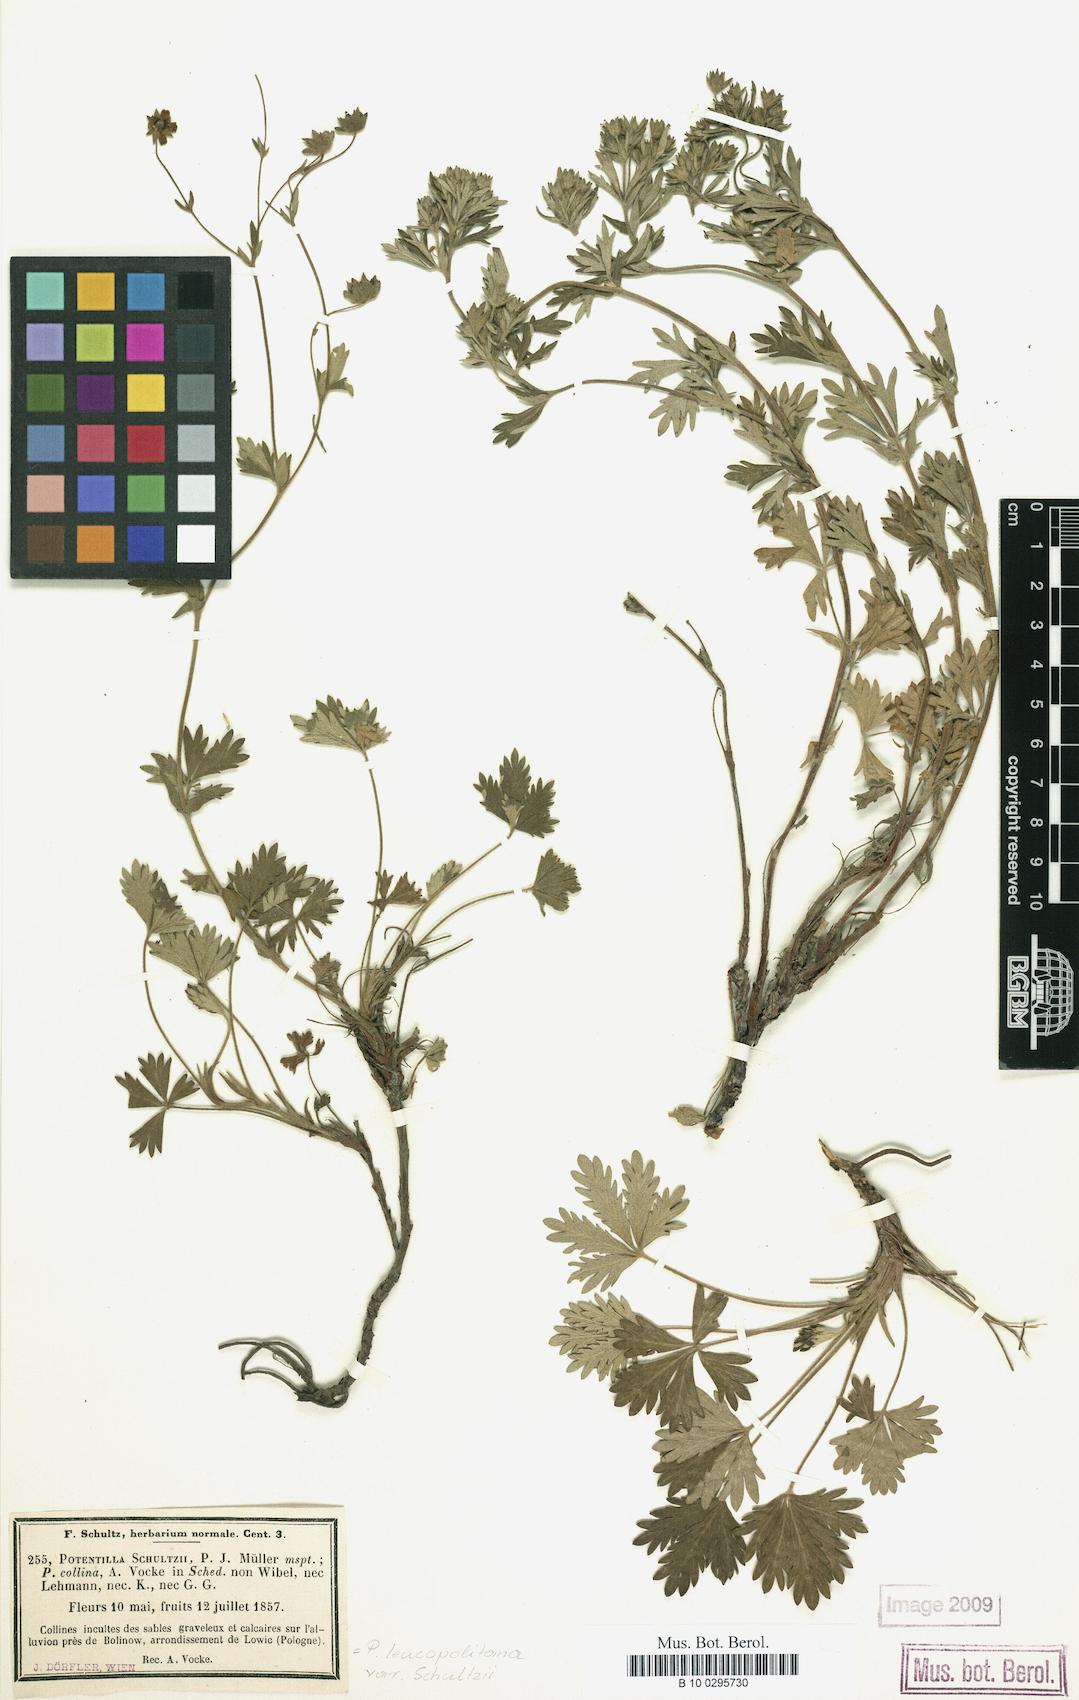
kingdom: Plantae
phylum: Tracheophyta
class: Magnoliopsida
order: Rosales
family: Rosaceae
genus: Potentilla
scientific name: Potentilla
